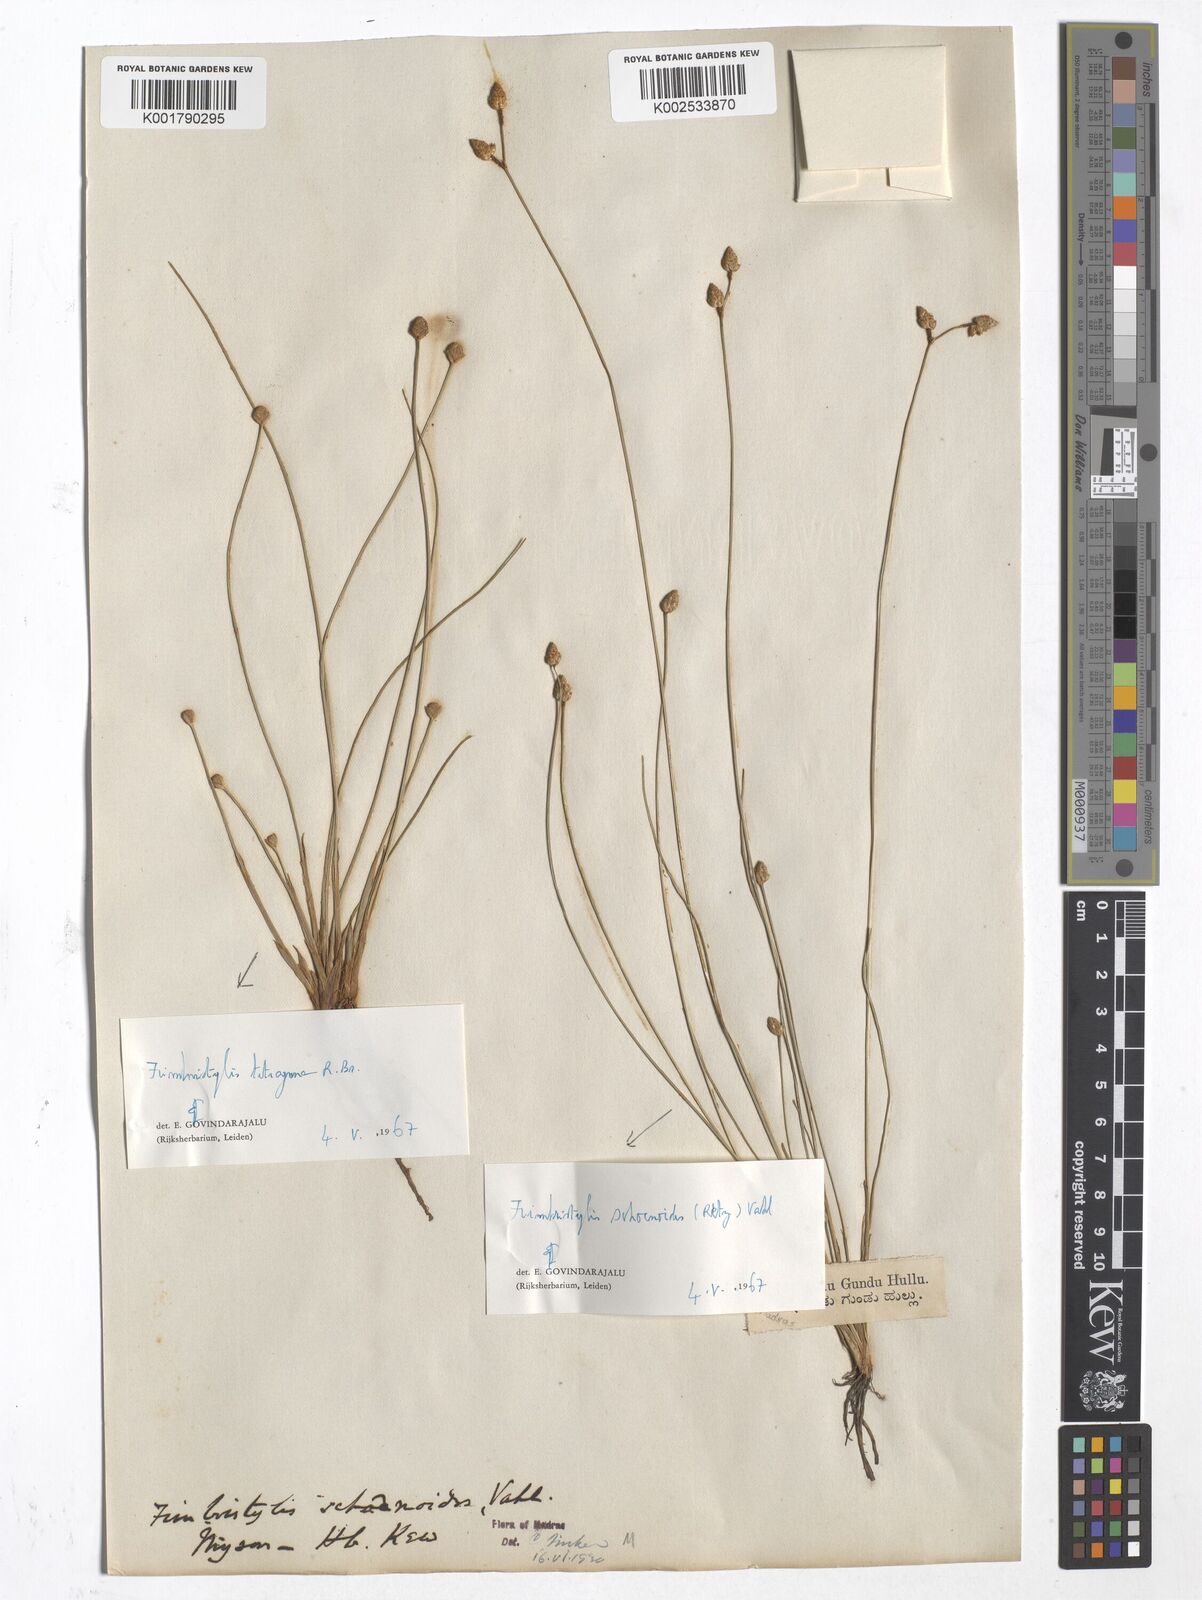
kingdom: Plantae
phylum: Tracheophyta
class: Liliopsida
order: Poales
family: Cyperaceae
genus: Fimbristylis
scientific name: Fimbristylis tetragona
